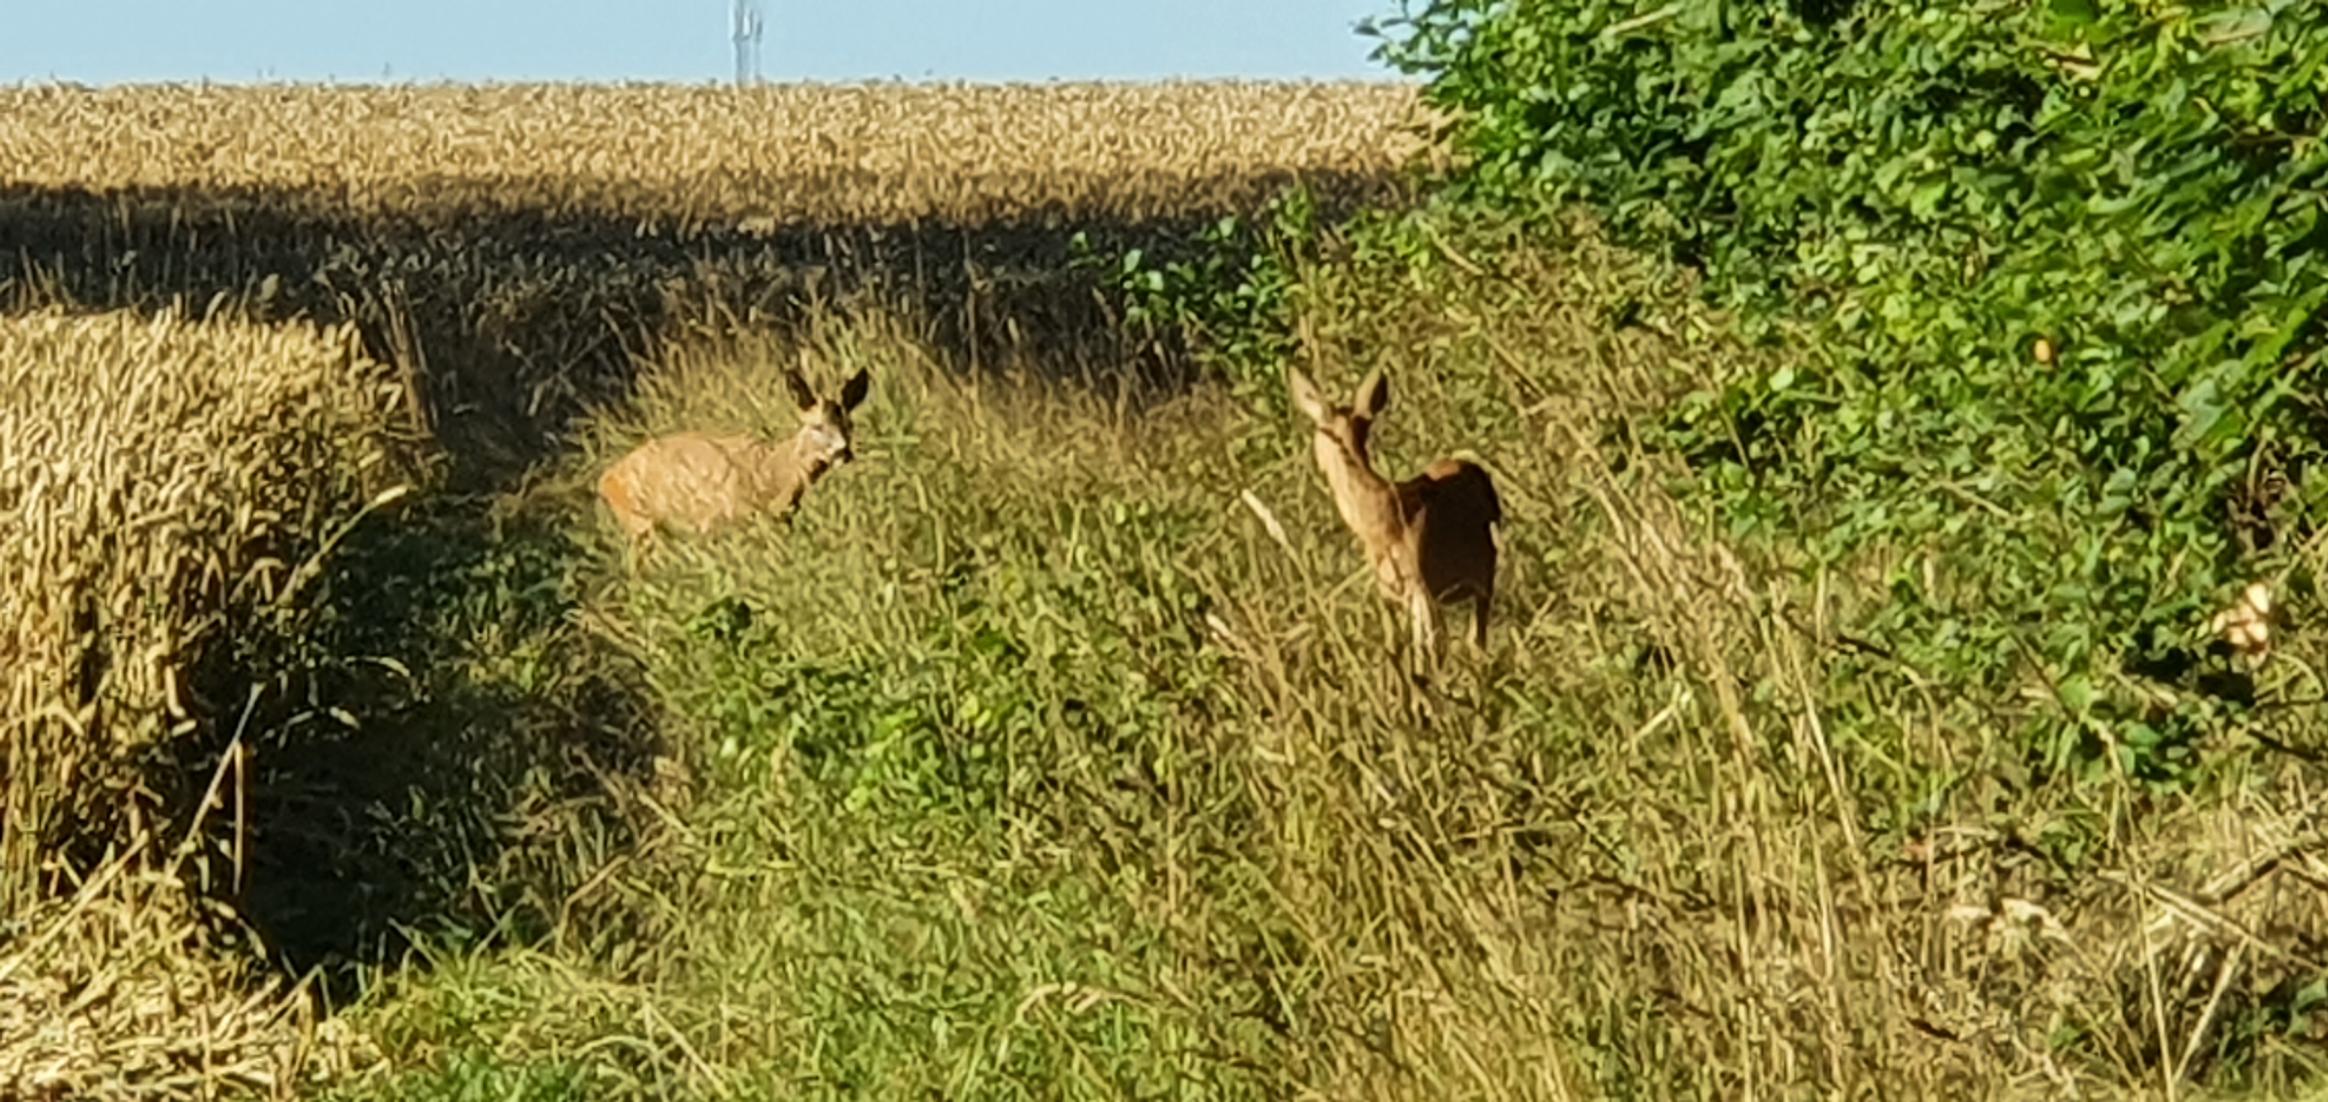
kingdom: Animalia
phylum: Chordata
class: Mammalia
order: Artiodactyla
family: Cervidae
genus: Capreolus
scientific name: Capreolus capreolus
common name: Rådyr
